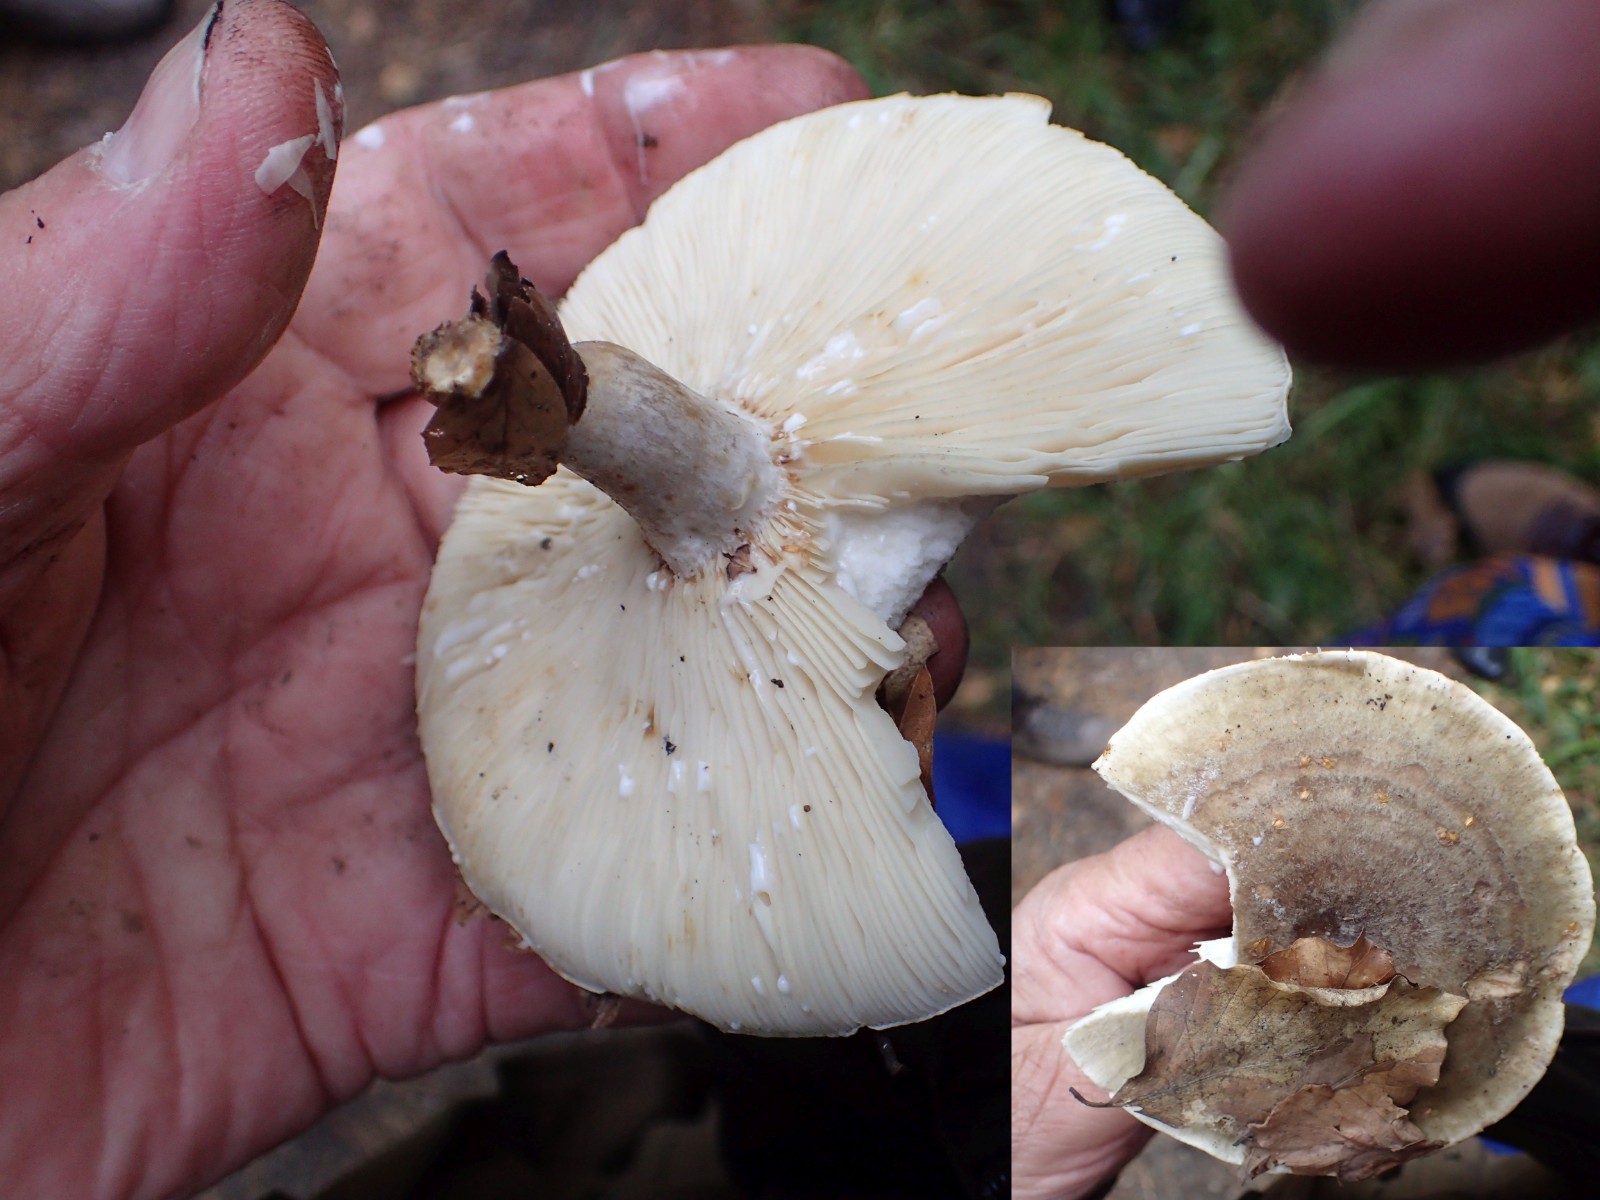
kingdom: Fungi
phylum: Basidiomycota
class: Agaricomycetes
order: Russulales
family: Russulaceae
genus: Lactarius
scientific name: Lactarius fluens
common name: lysrandet mælkehat
